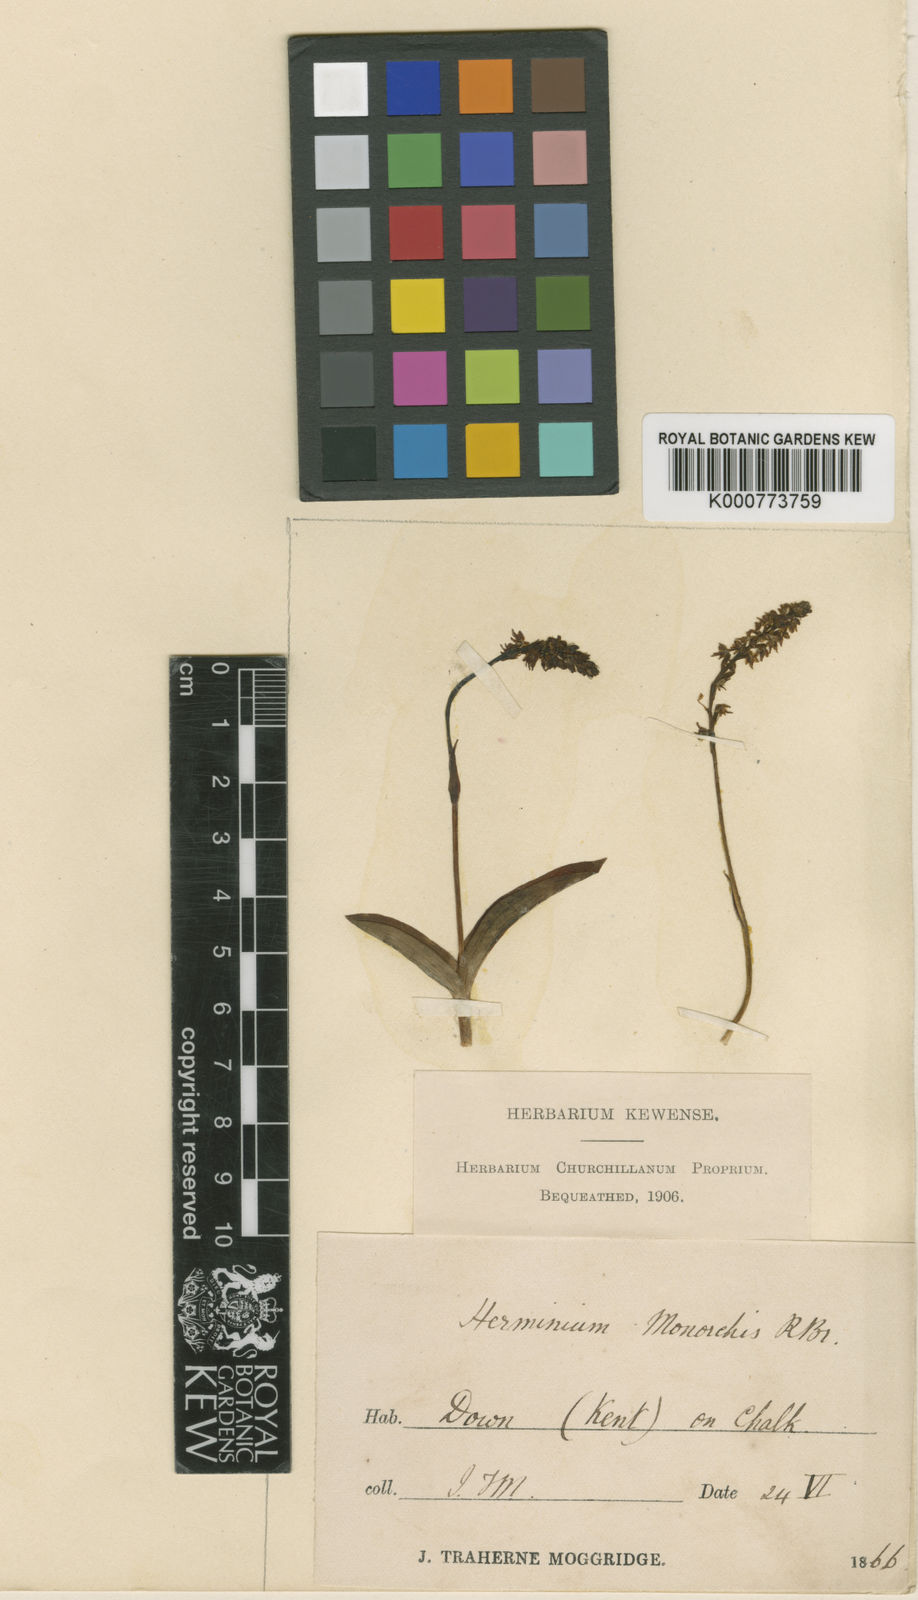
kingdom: Plantae
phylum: Tracheophyta
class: Liliopsida
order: Asparagales
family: Orchidaceae
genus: Herminium
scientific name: Herminium monorchis
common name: Musk orchid
